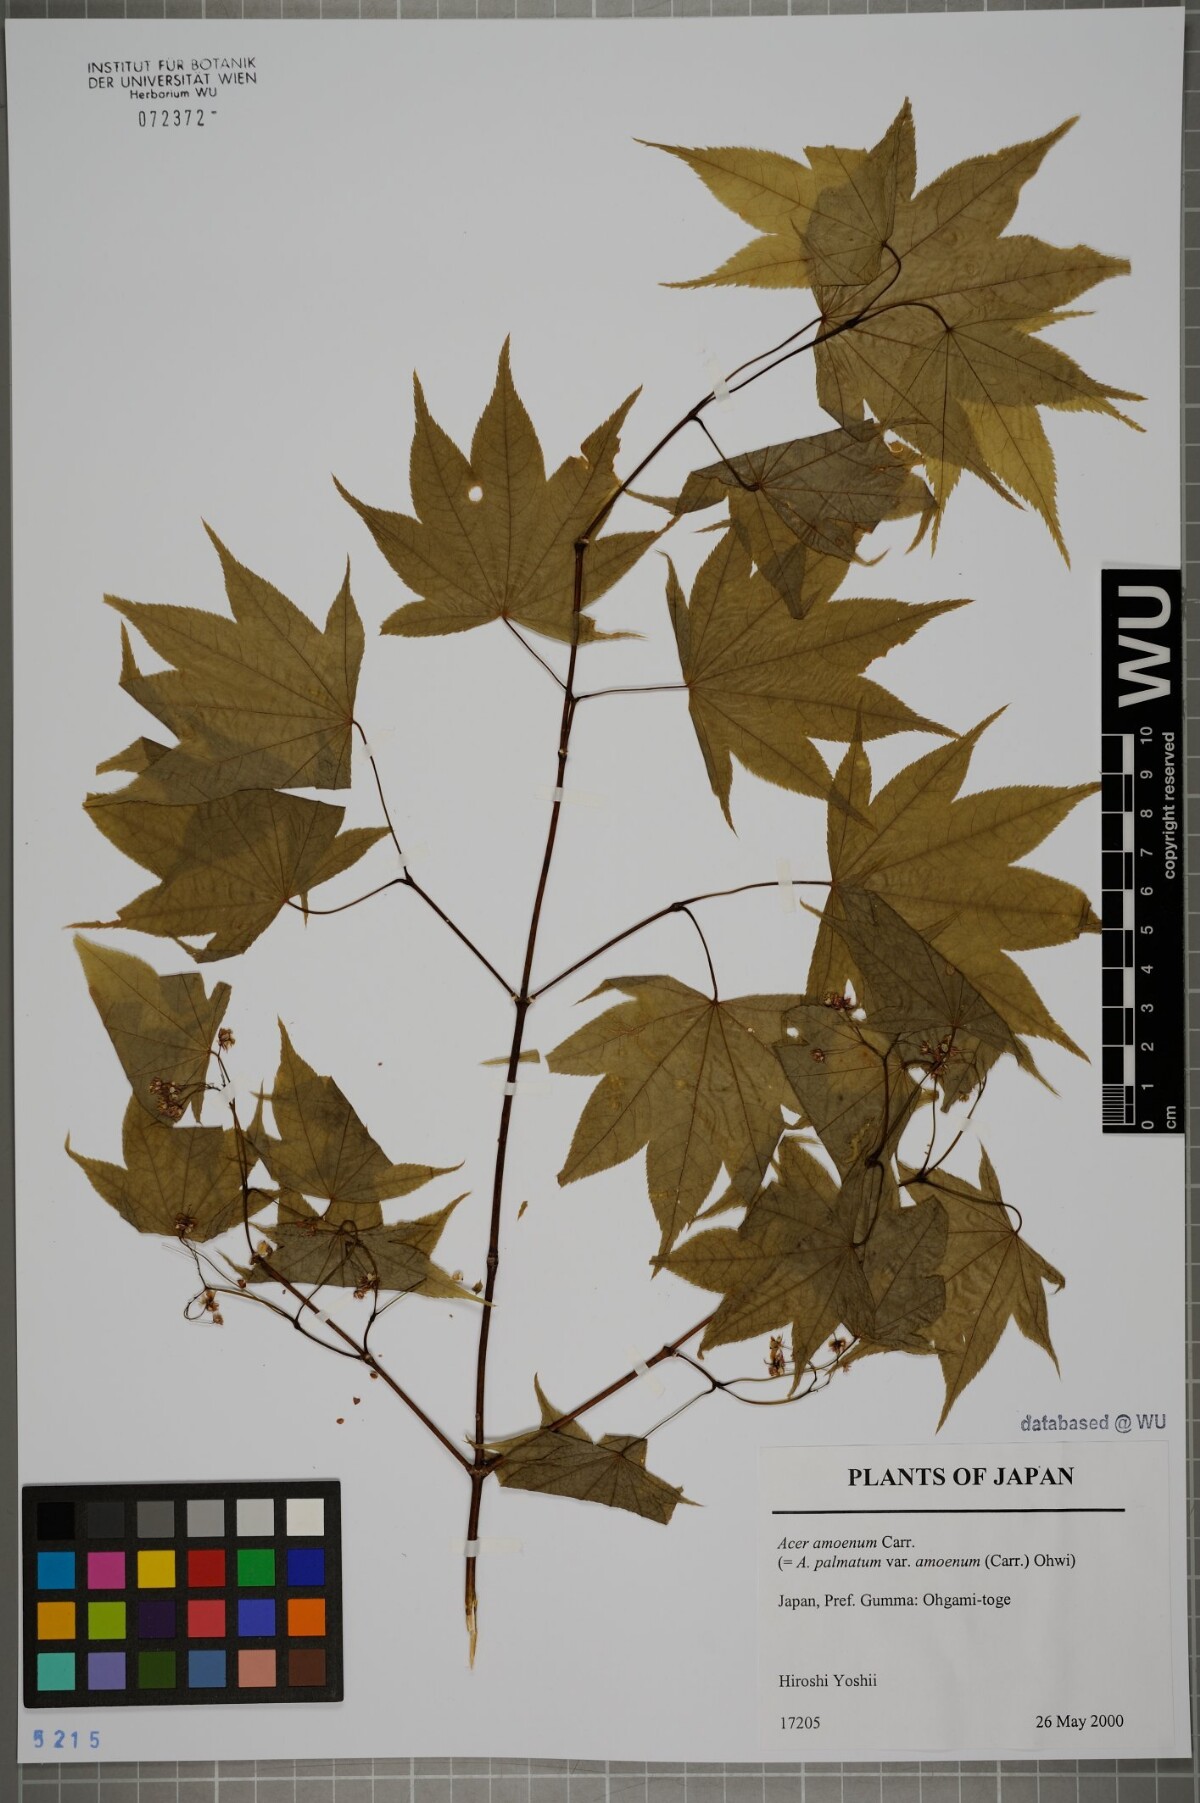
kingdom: Plantae
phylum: Tracheophyta
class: Magnoliopsida
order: Sapindales
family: Sapindaceae
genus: Acer
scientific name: Acer palmatum
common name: Japanese maple
